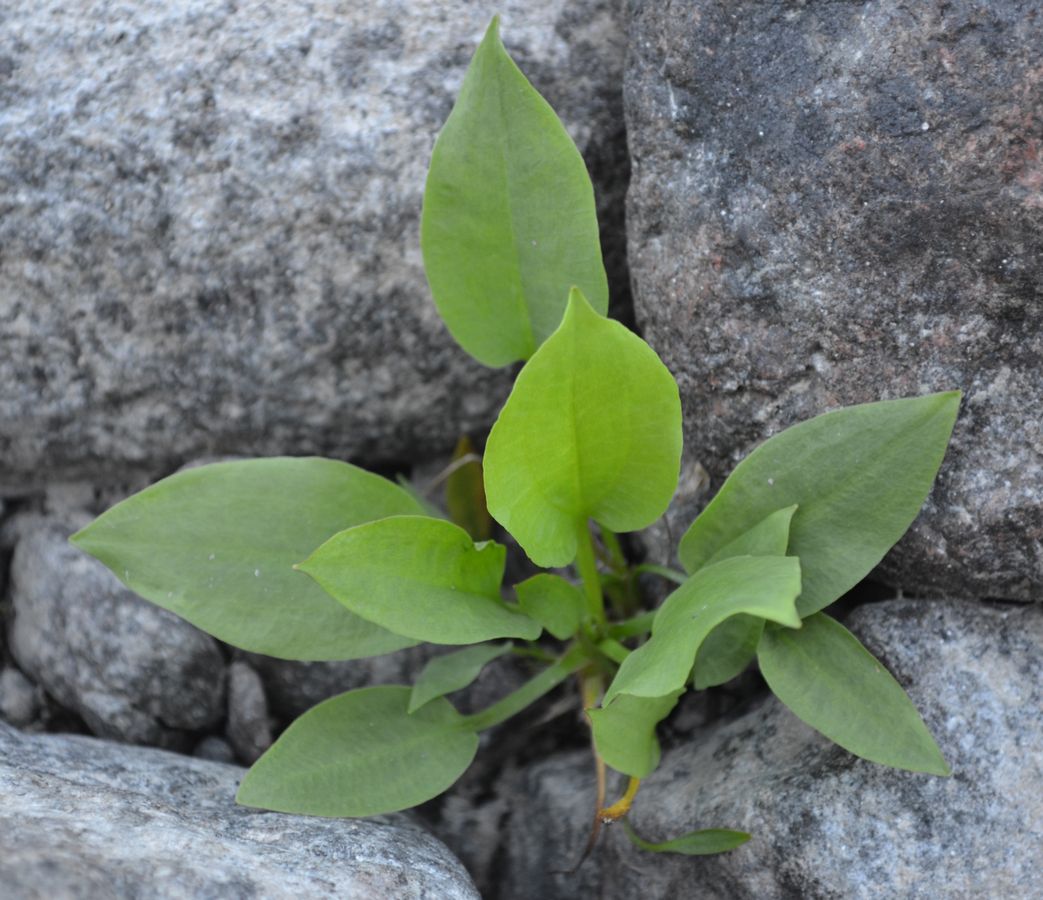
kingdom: Plantae
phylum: Tracheophyta
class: Liliopsida
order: Alismatales
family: Alismataceae
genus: Alisma
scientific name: Alisma juzepczukii
